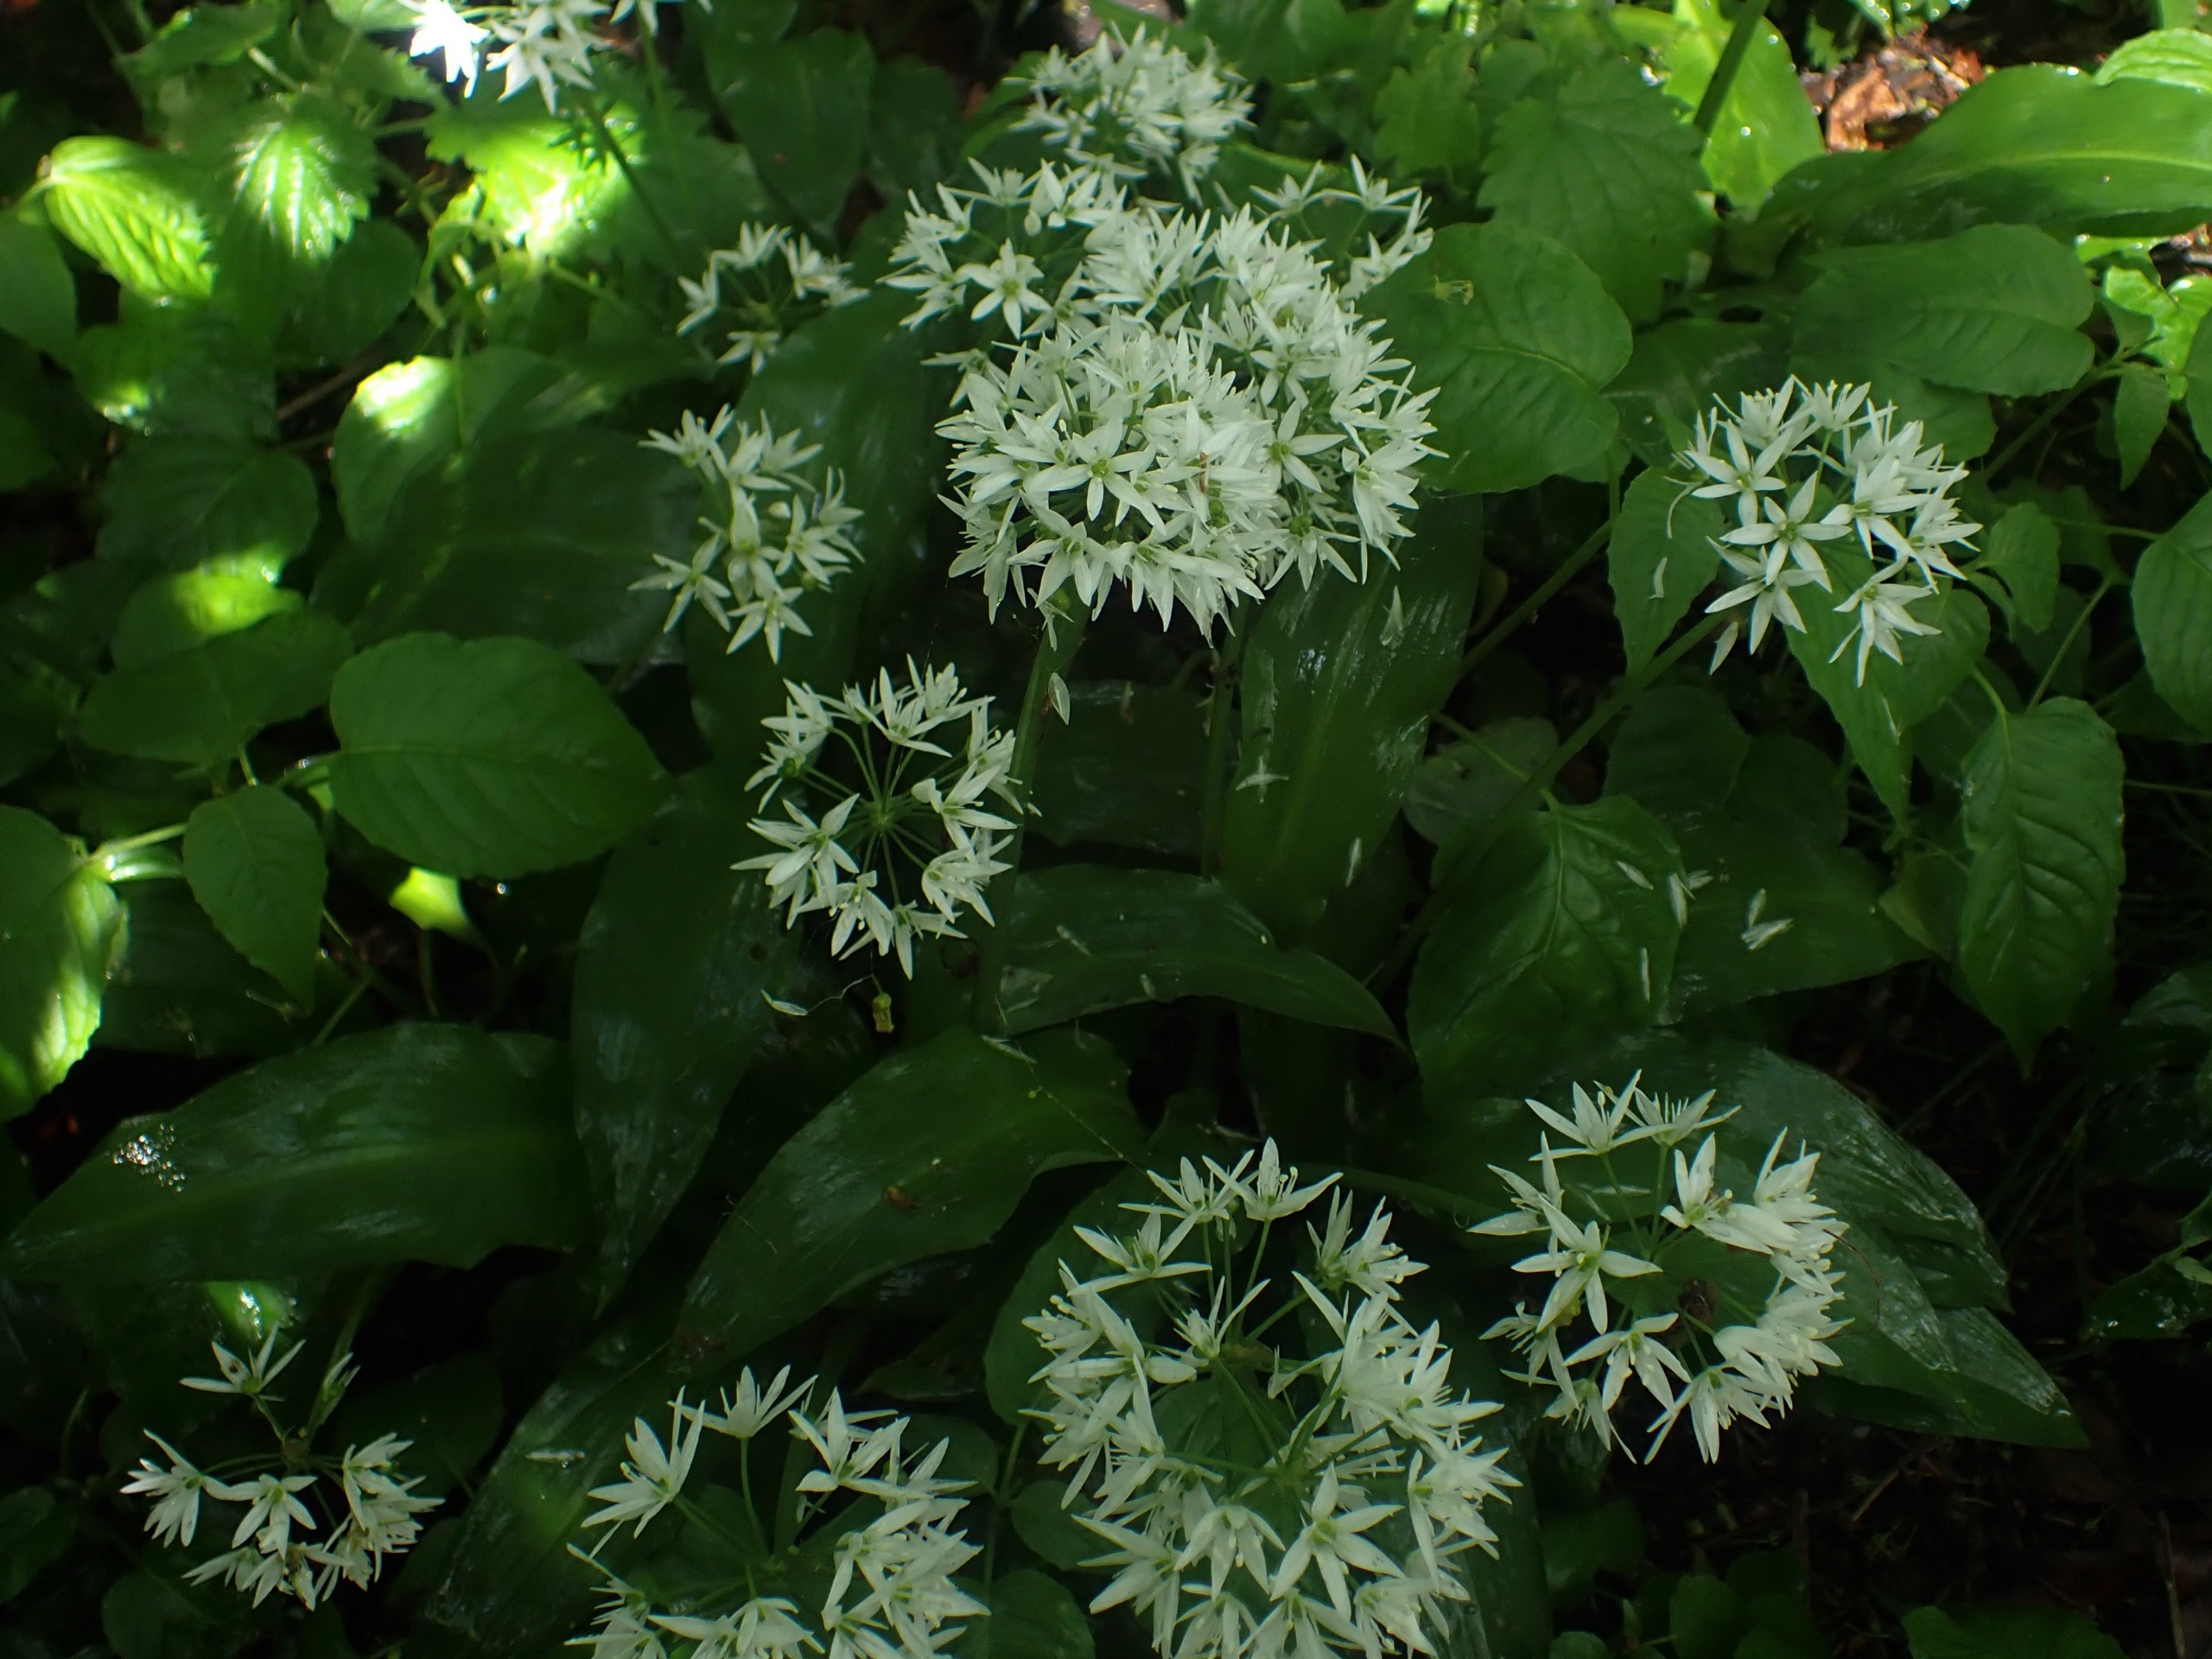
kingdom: Plantae
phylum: Tracheophyta
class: Liliopsida
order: Asparagales
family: Amaryllidaceae
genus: Allium
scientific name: Allium ursinum
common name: Rams-løg
